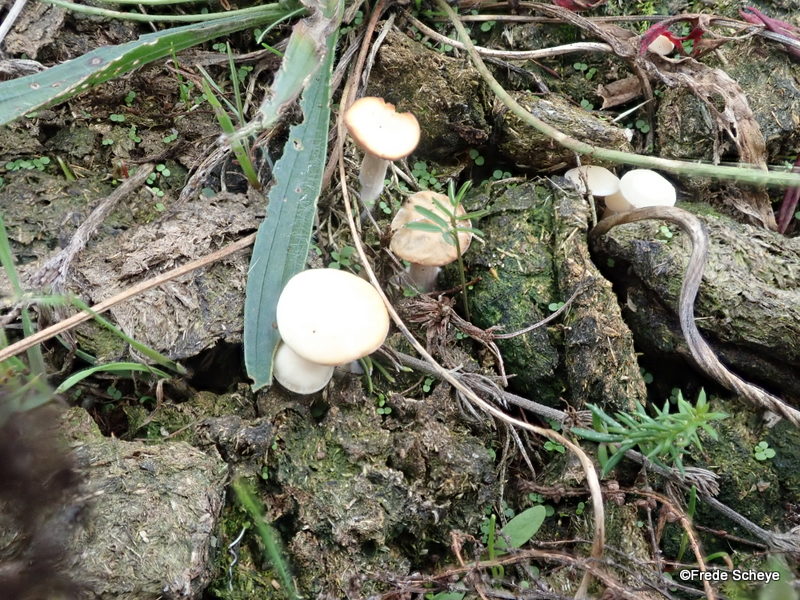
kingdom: Fungi
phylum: Basidiomycota
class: Agaricomycetes
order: Agaricales
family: Tricholomataceae
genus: Clitocybe
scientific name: Clitocybe
